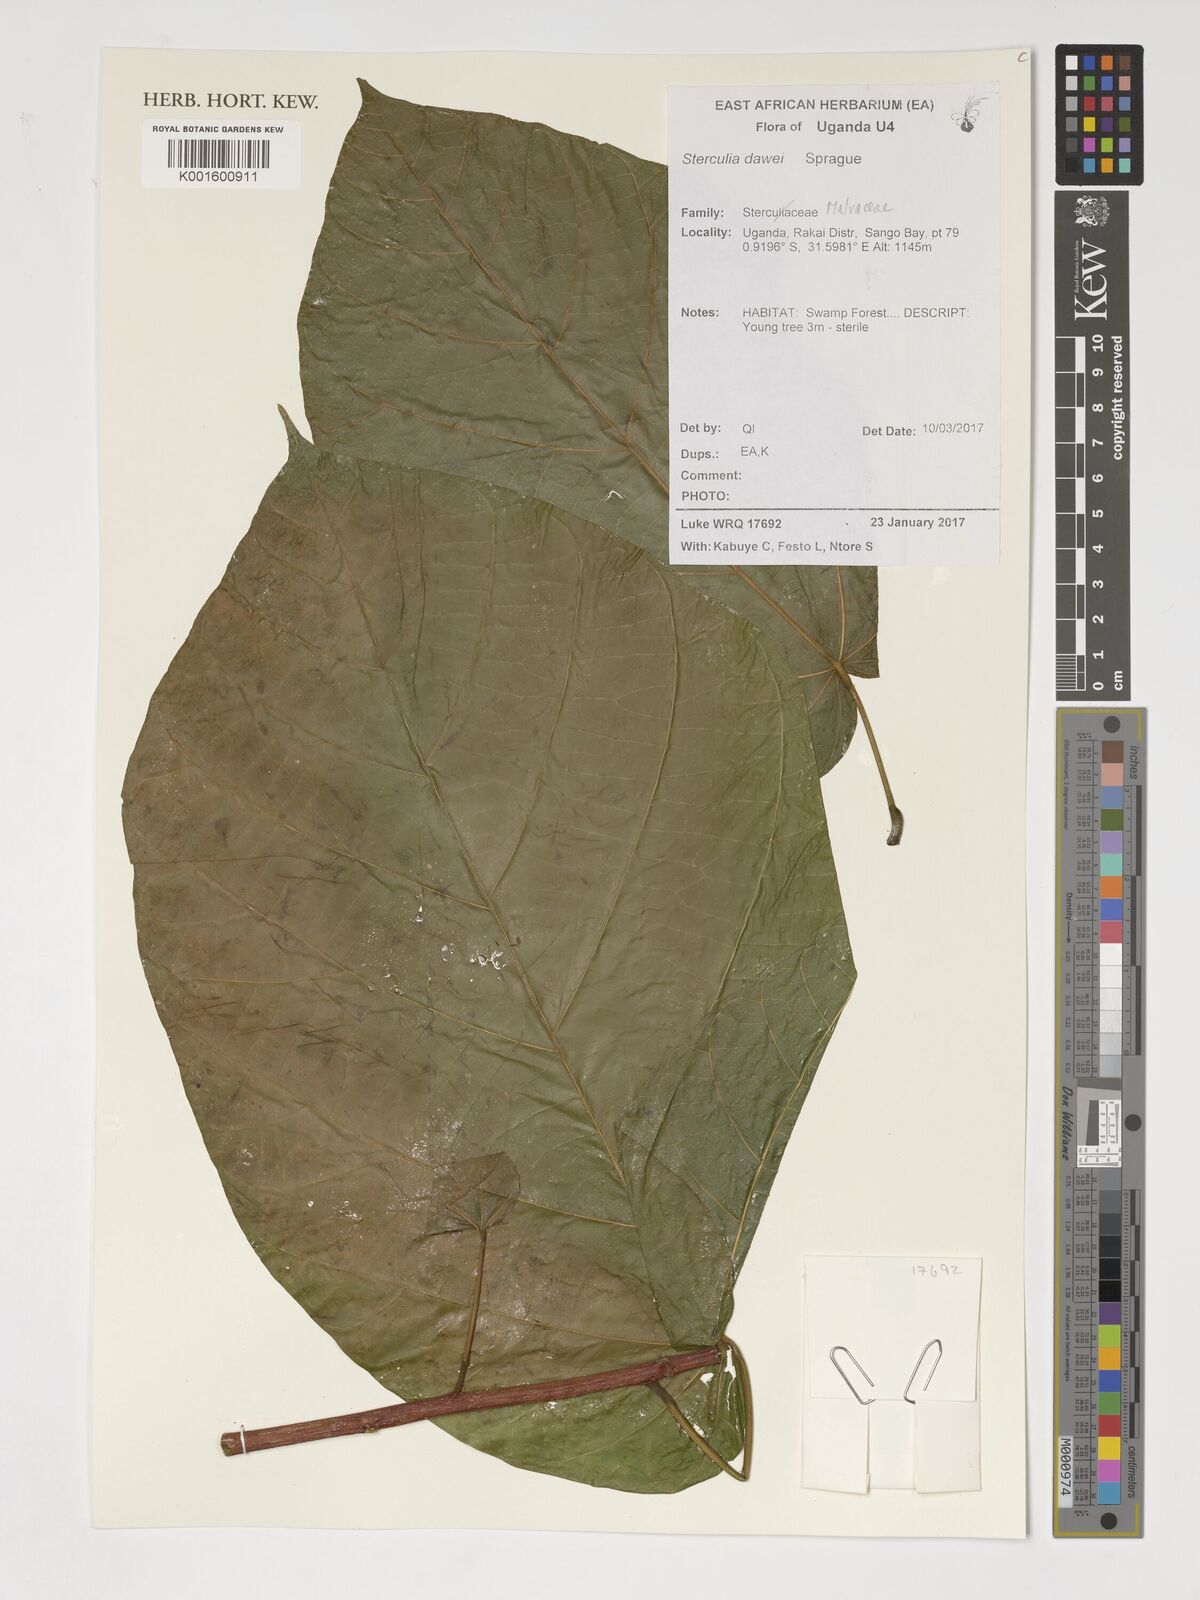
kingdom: Plantae
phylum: Tracheophyta
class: Magnoliopsida
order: Malvales
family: Malvaceae
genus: Sterculia
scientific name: Sterculia dawei
